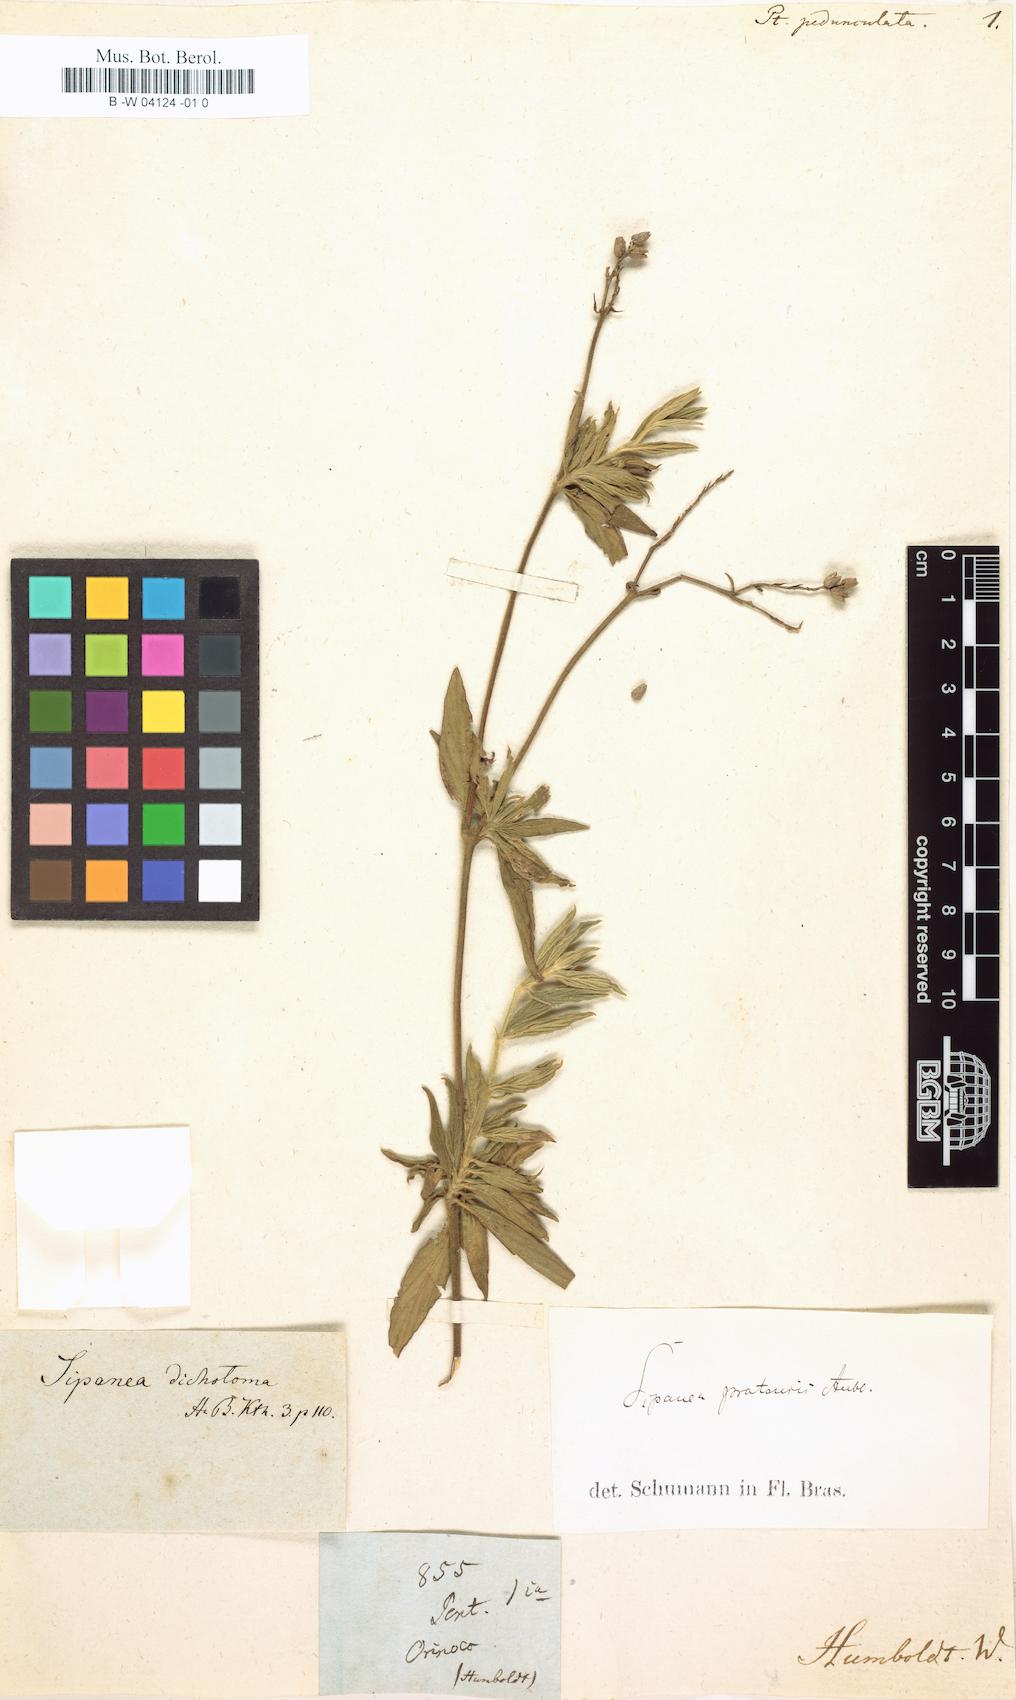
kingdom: Plantae
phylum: Tracheophyta
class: Magnoliopsida
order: Gentianales
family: Rubiaceae
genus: Sipanea
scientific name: Sipanea pratensis
